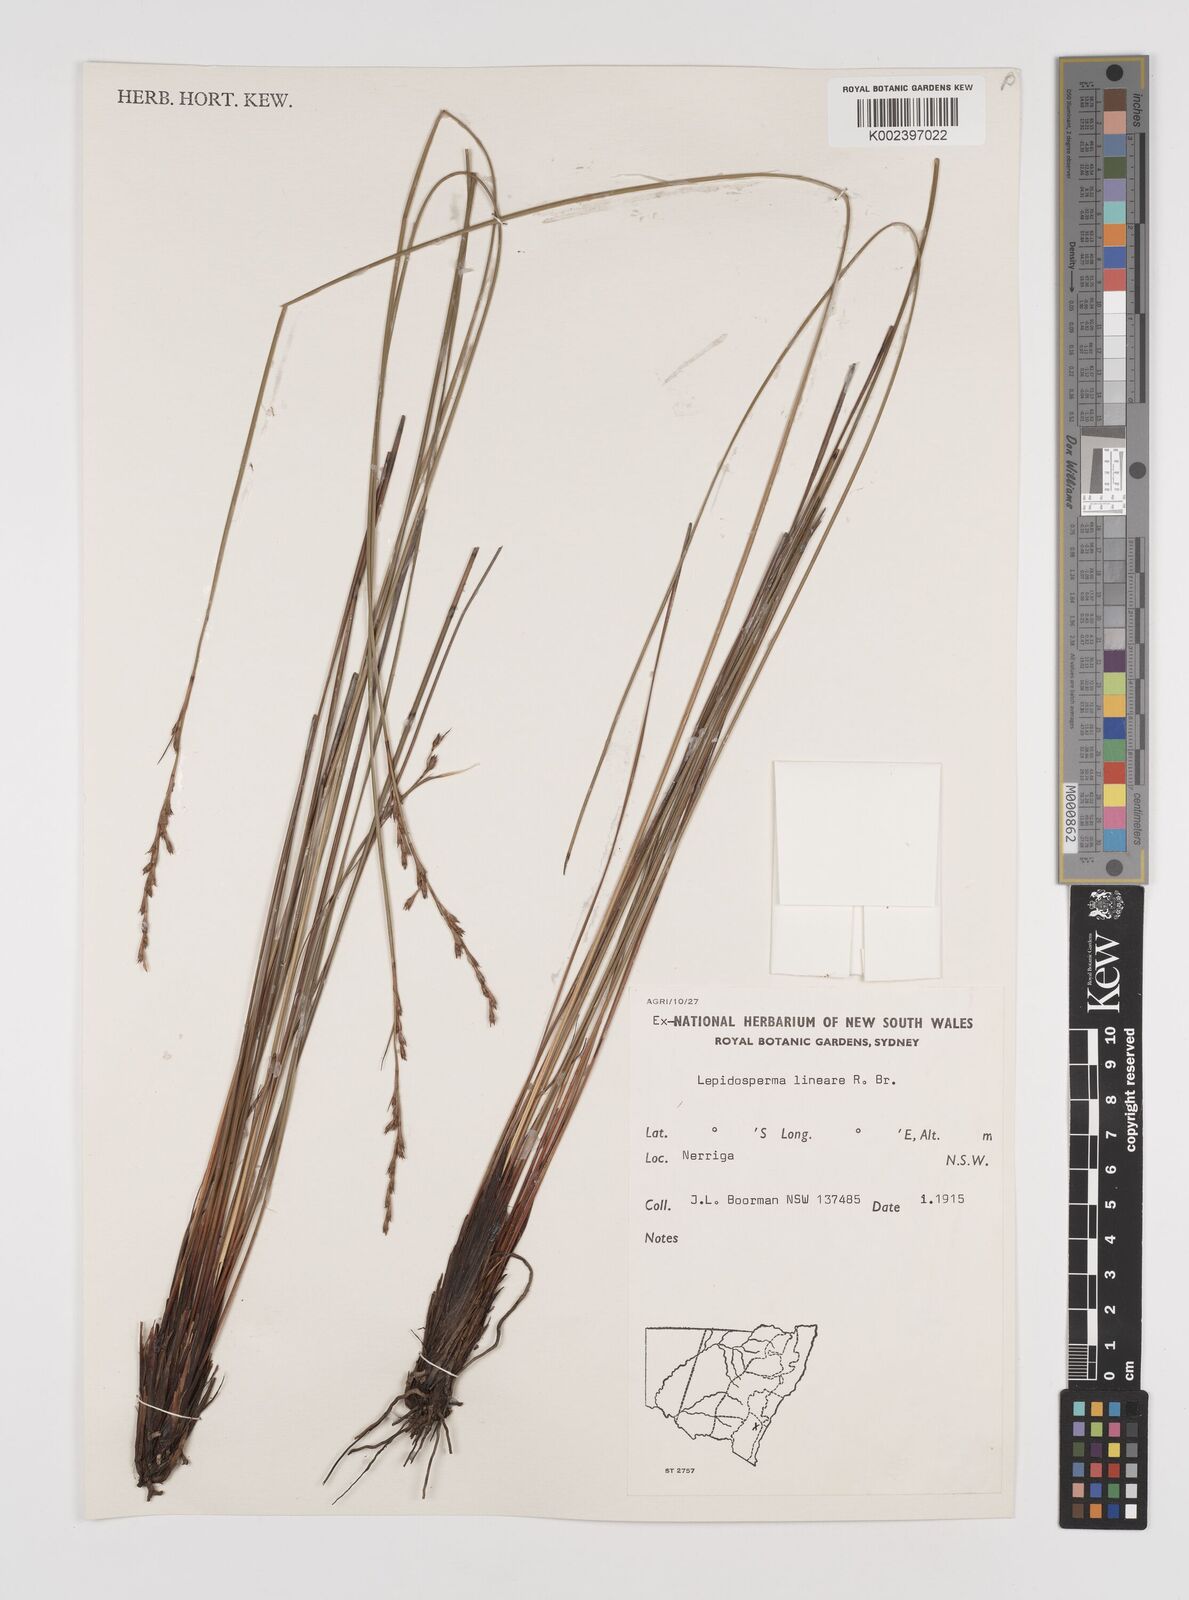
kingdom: Plantae
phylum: Tracheophyta
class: Liliopsida
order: Poales
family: Cyperaceae
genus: Lepidosperma
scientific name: Lepidosperma lineare
